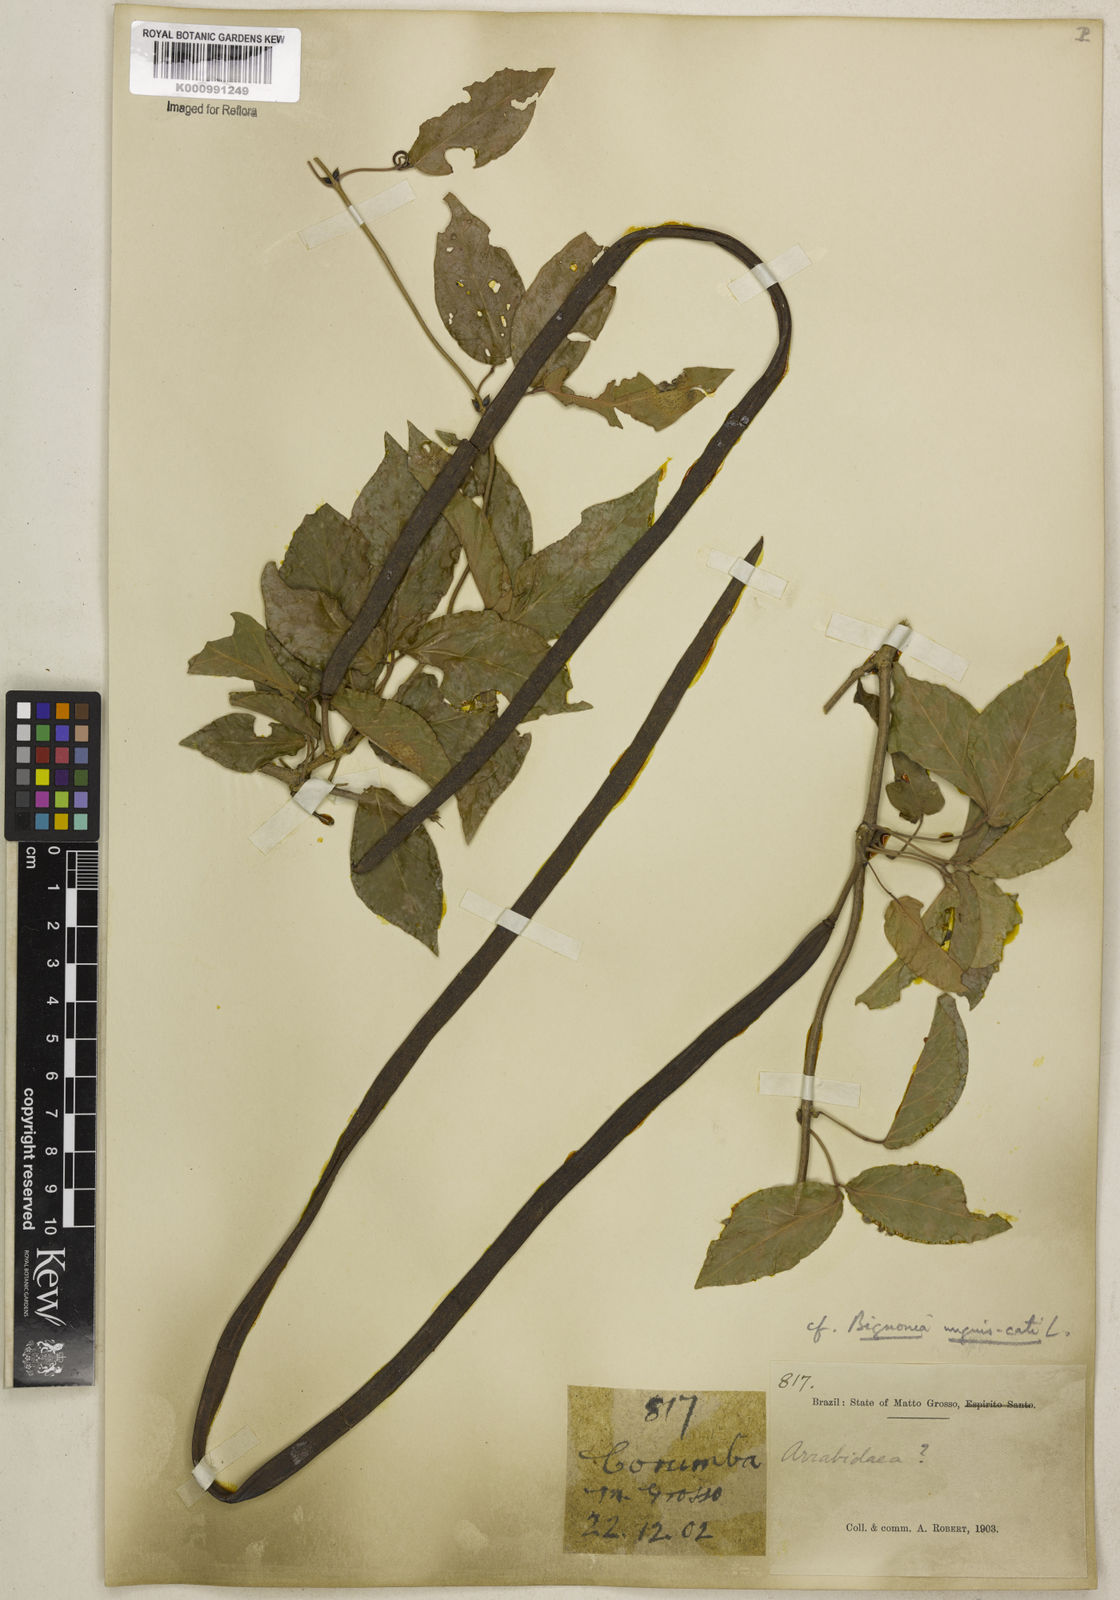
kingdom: Plantae
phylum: Tracheophyta
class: Magnoliopsida
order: Lamiales
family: Bignoniaceae
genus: Dolichandra
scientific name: Dolichandra unguis-cati
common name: Catclaw vine
